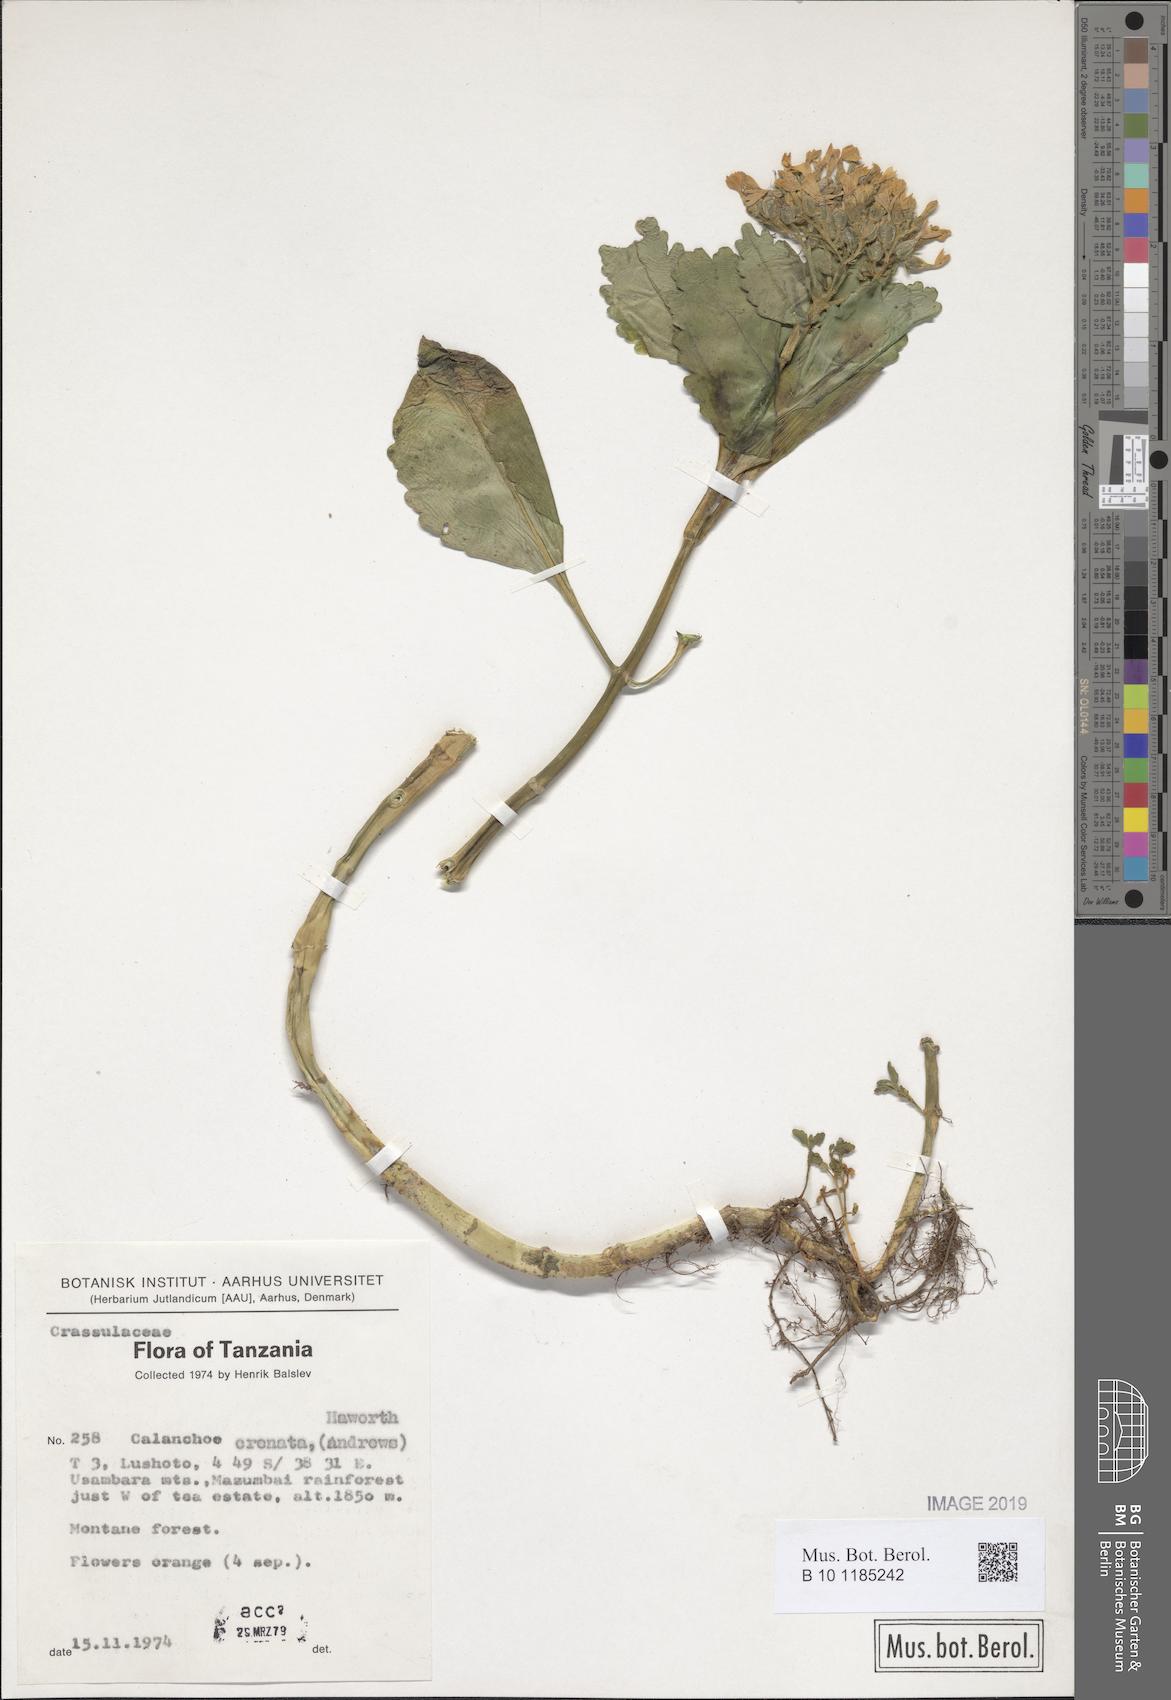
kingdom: Plantae
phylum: Tracheophyta
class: Magnoliopsida
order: Saxifragales
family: Crassulaceae
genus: Kalanchoe
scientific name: Kalanchoe crenata
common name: Neverdie
